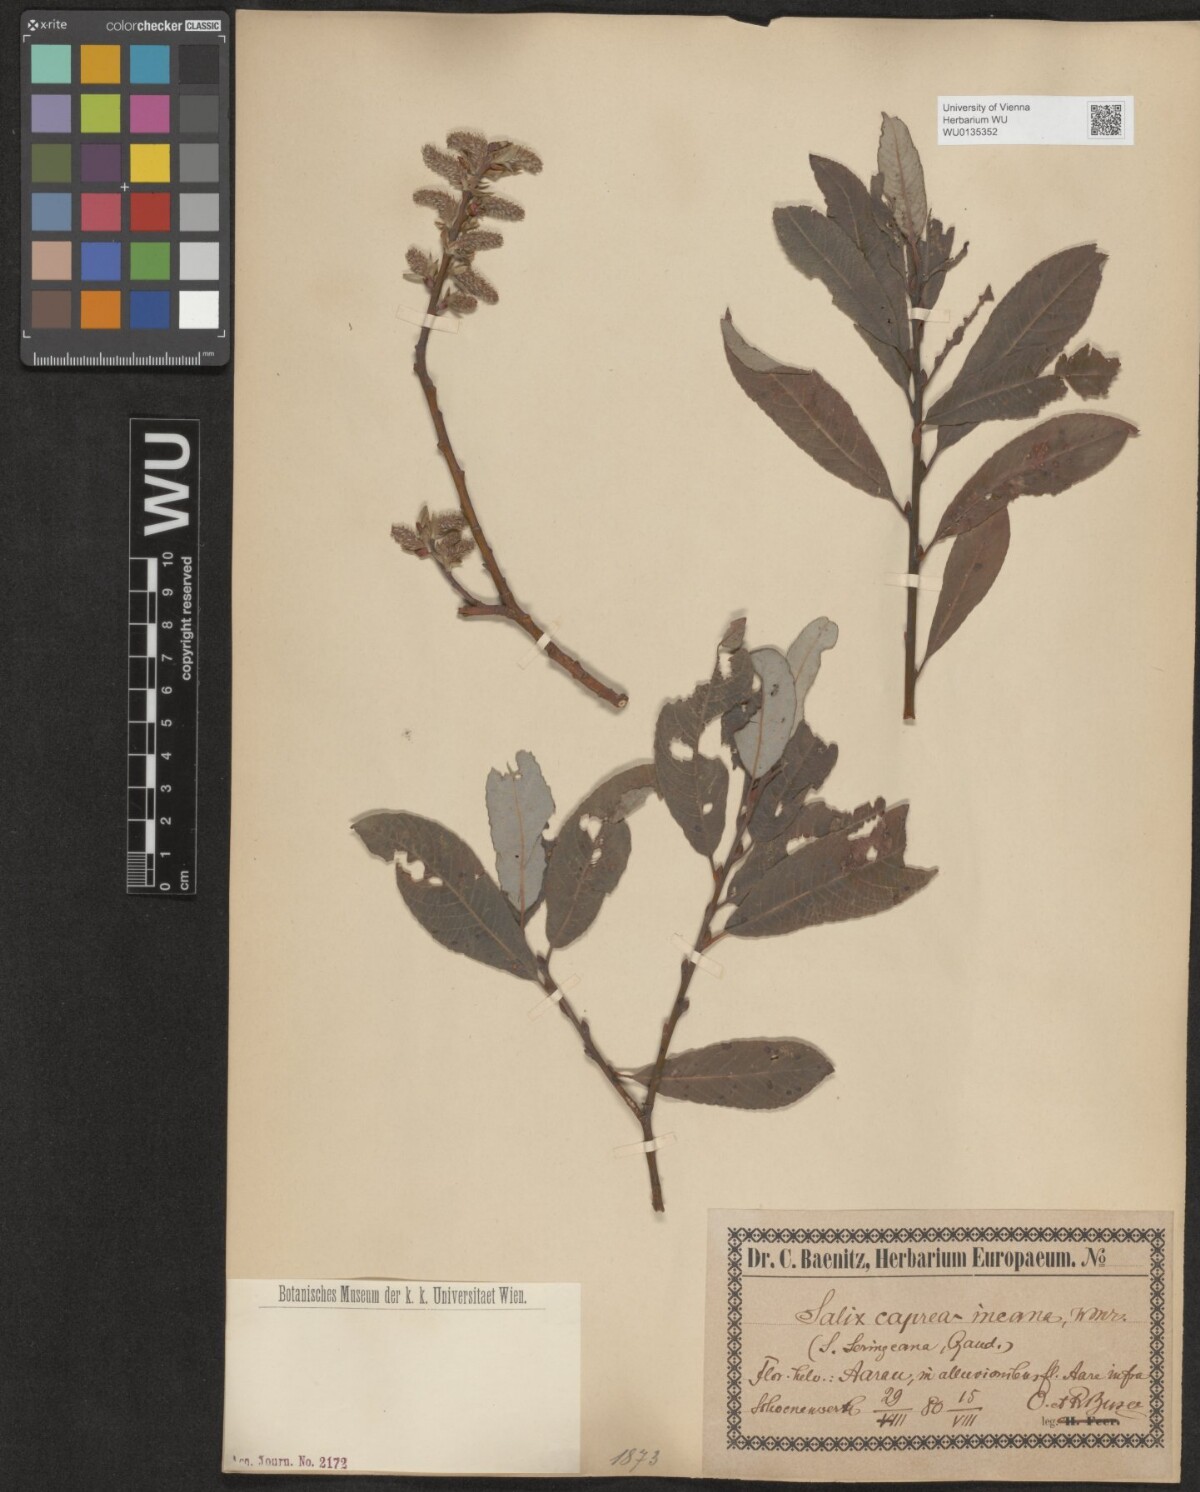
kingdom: Plantae
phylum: Tracheophyta
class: Magnoliopsida
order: Malpighiales
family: Salicaceae
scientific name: Salicaceae
